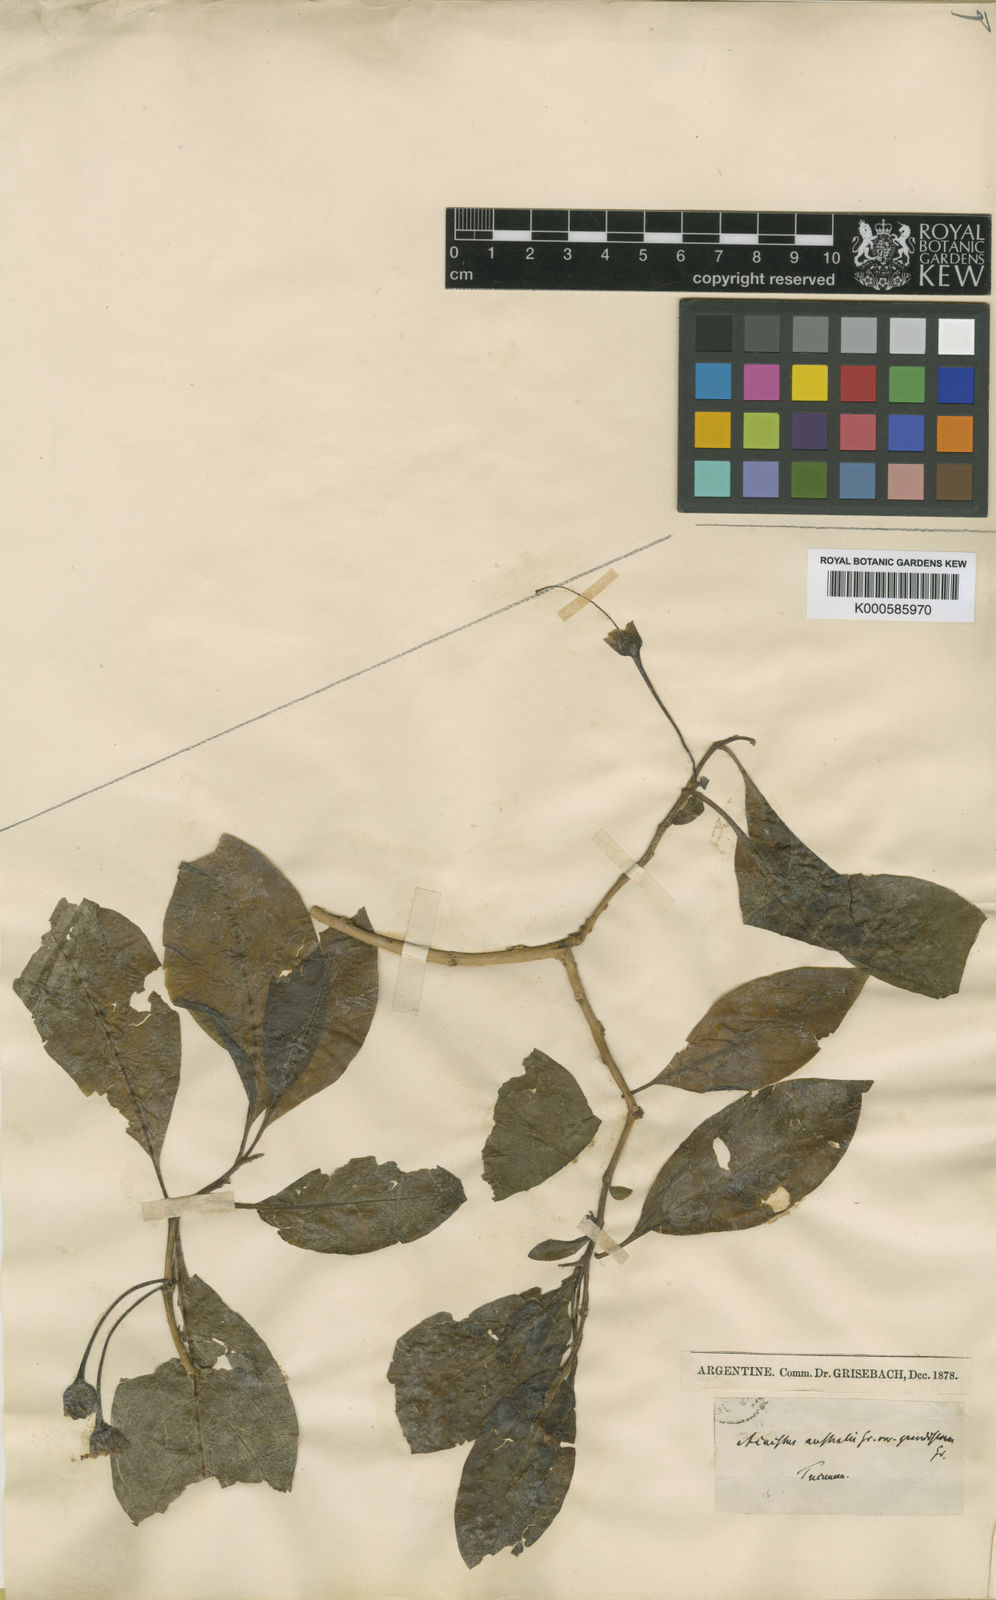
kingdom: Plantae
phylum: Tracheophyta
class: Magnoliopsida
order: Solanales
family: Solanaceae
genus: Eriolarynx
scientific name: Eriolarynx australis
